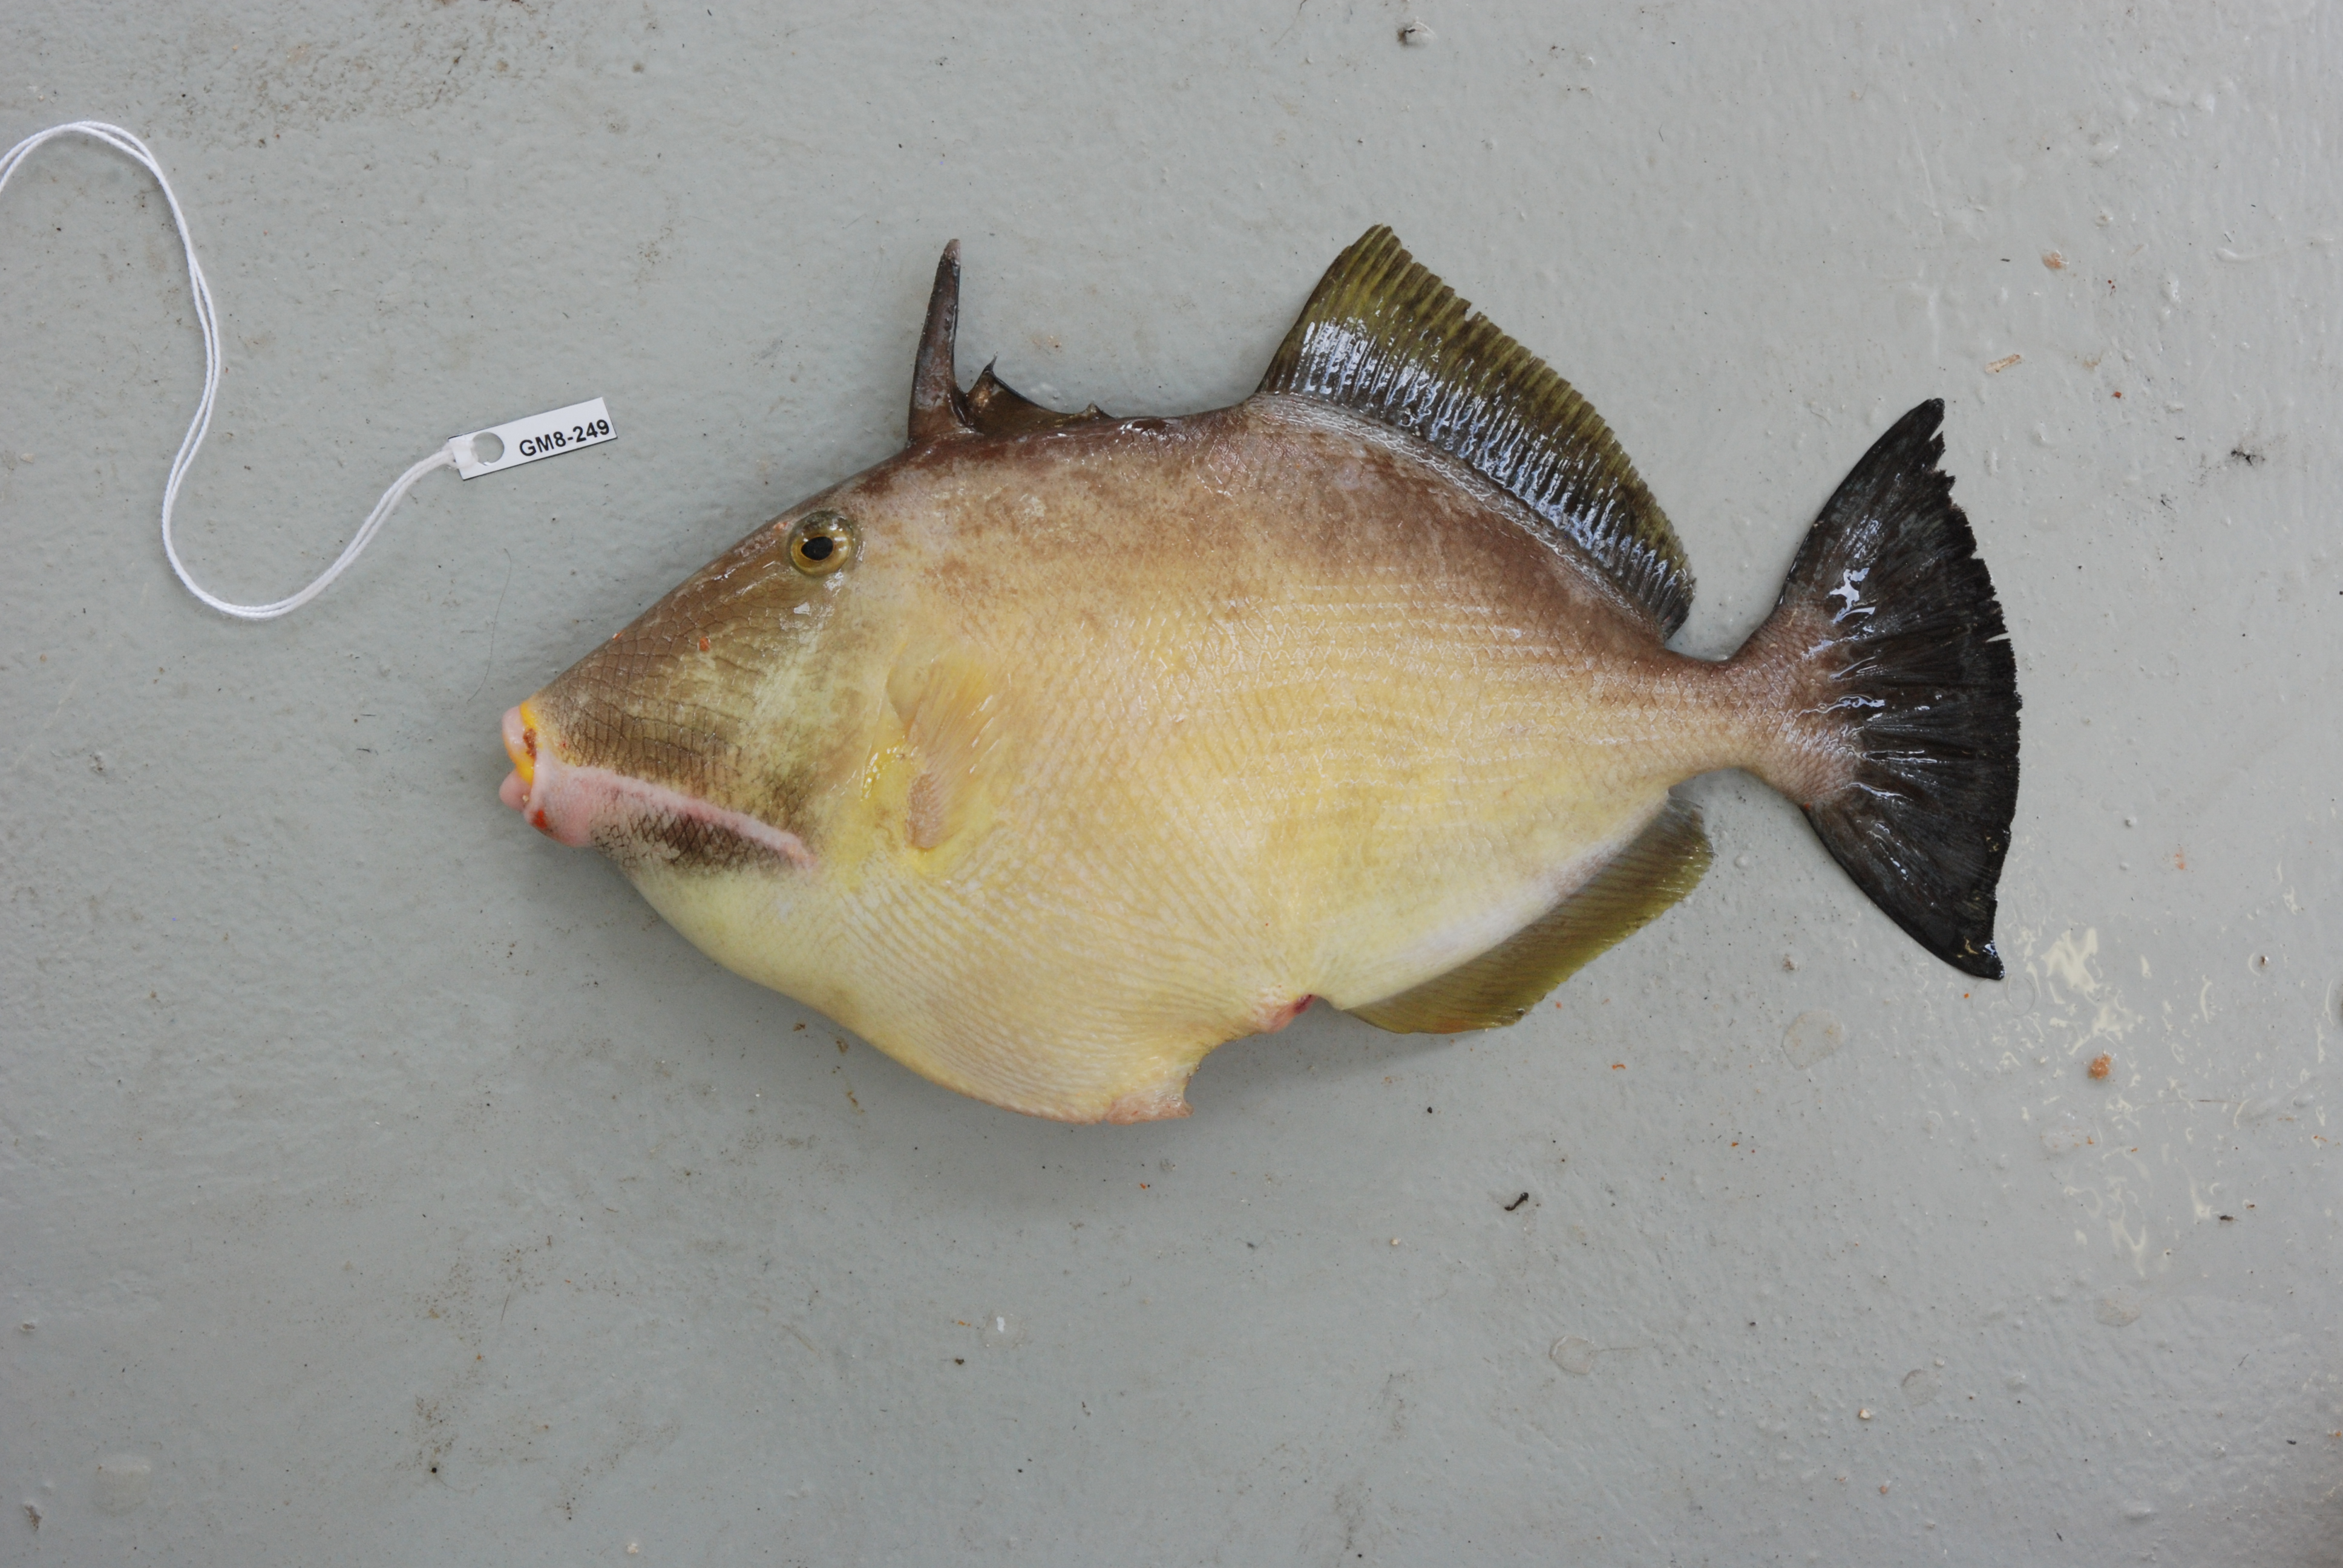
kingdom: Animalia
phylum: Chordata
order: Tetraodontiformes
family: Balistidae
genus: Sufflamen
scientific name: Sufflamen fraenatum
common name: Bridle triggerfish
